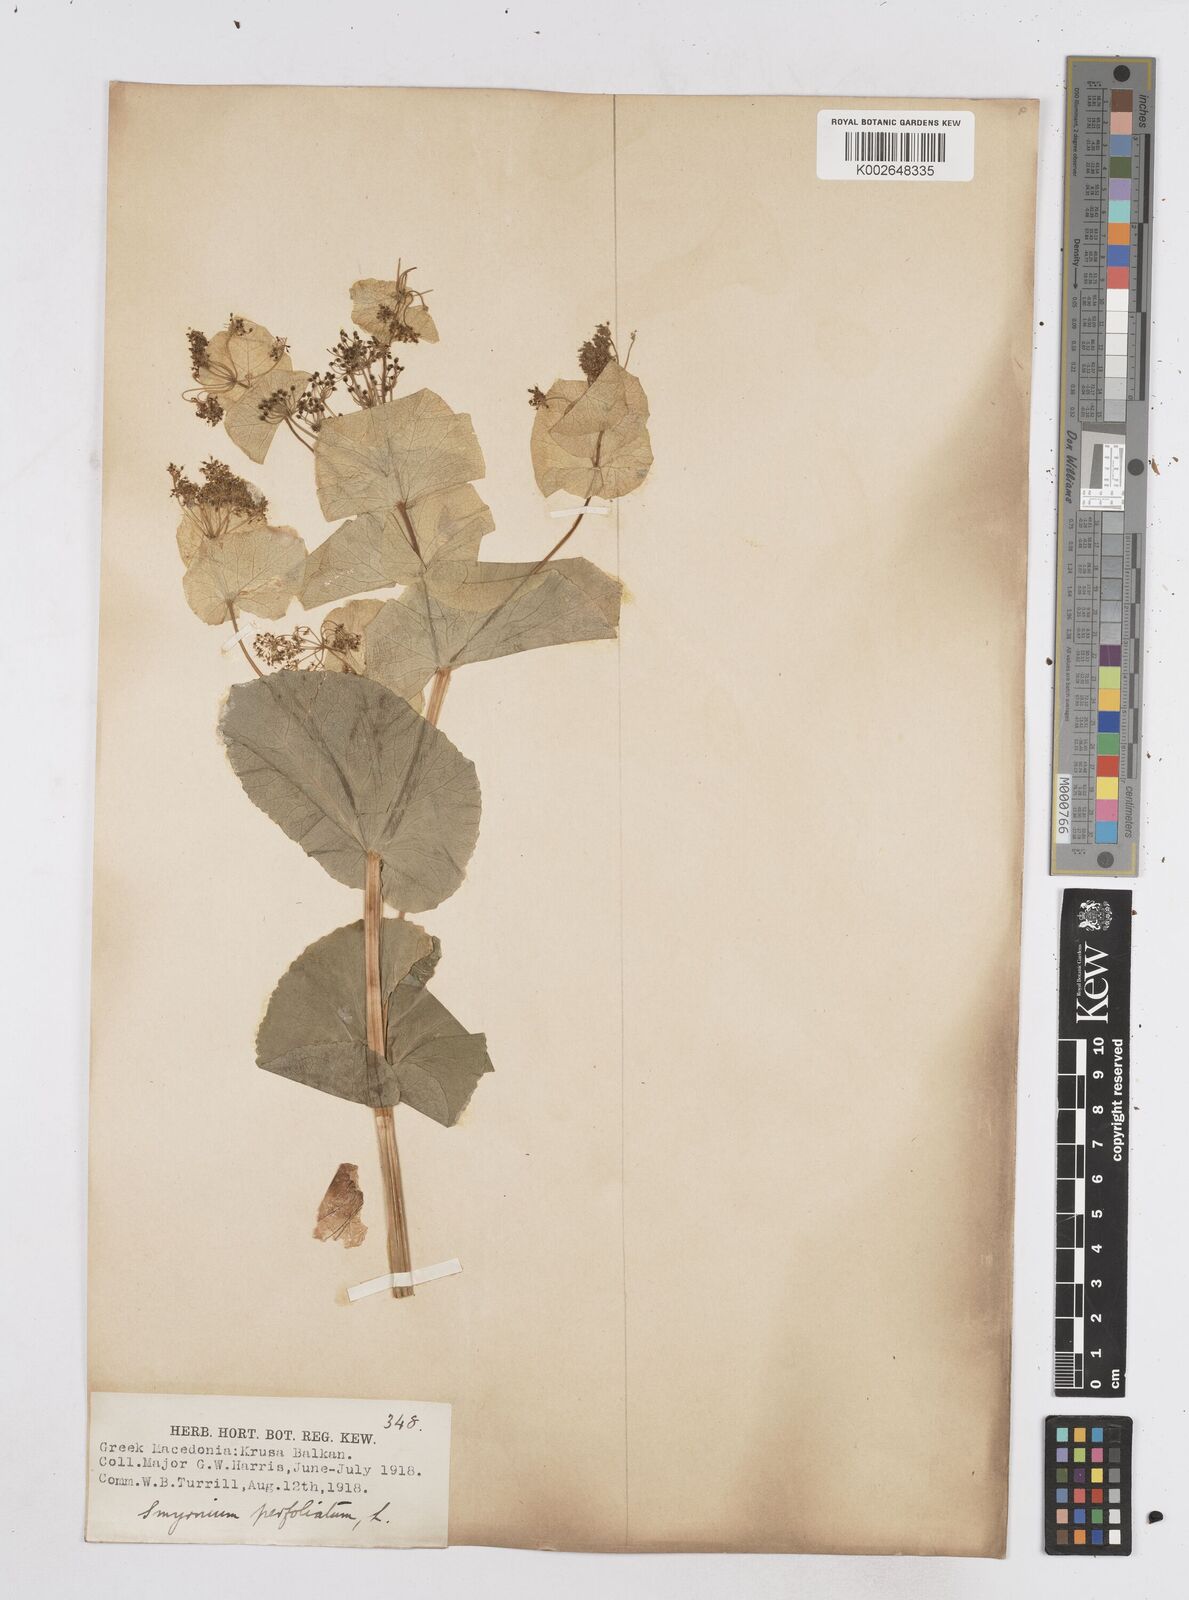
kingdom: Plantae
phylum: Tracheophyta
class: Magnoliopsida
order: Apiales
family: Apiaceae
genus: Smyrnium
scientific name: Smyrnium perfoliatum
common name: Perfoliate alexanders
